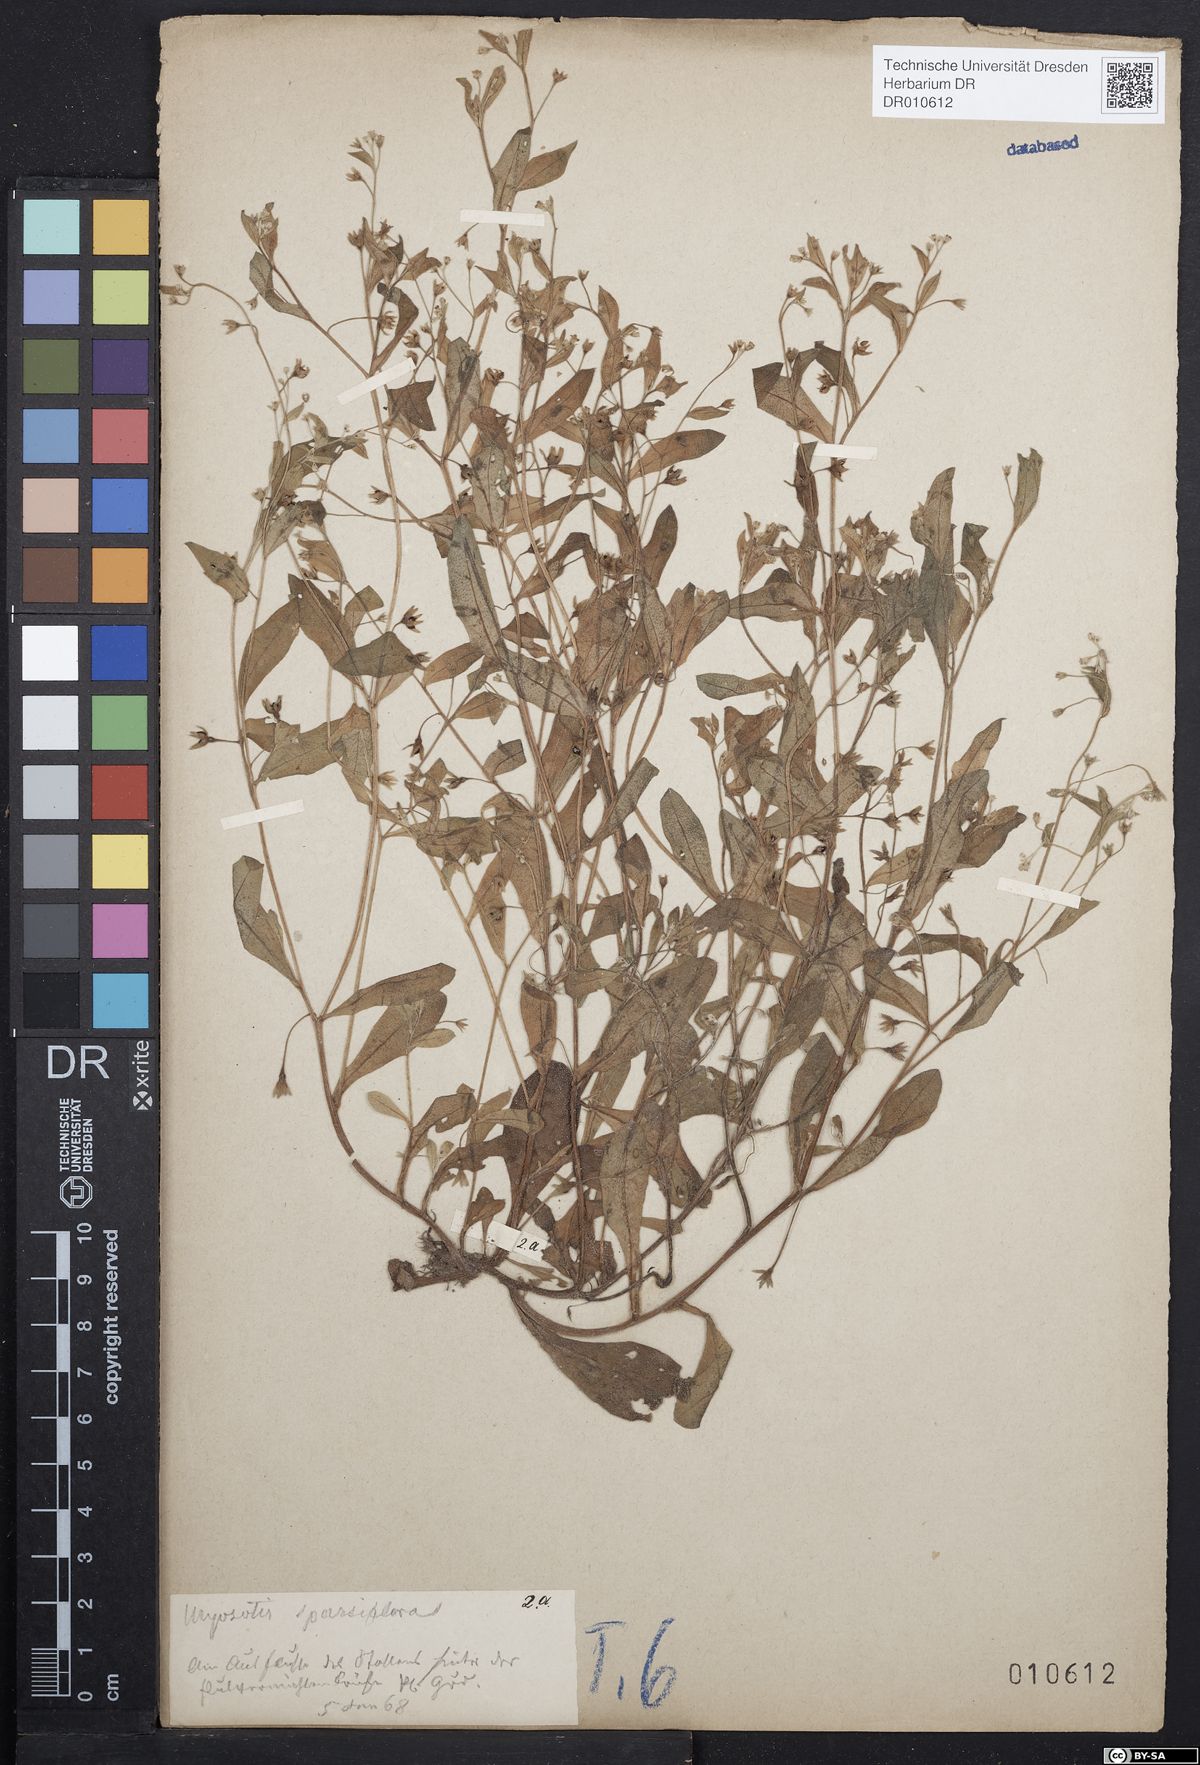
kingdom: Plantae
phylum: Tracheophyta
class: Magnoliopsida
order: Boraginales
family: Boraginaceae
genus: Myosotis
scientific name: Myosotis sparsiflora
